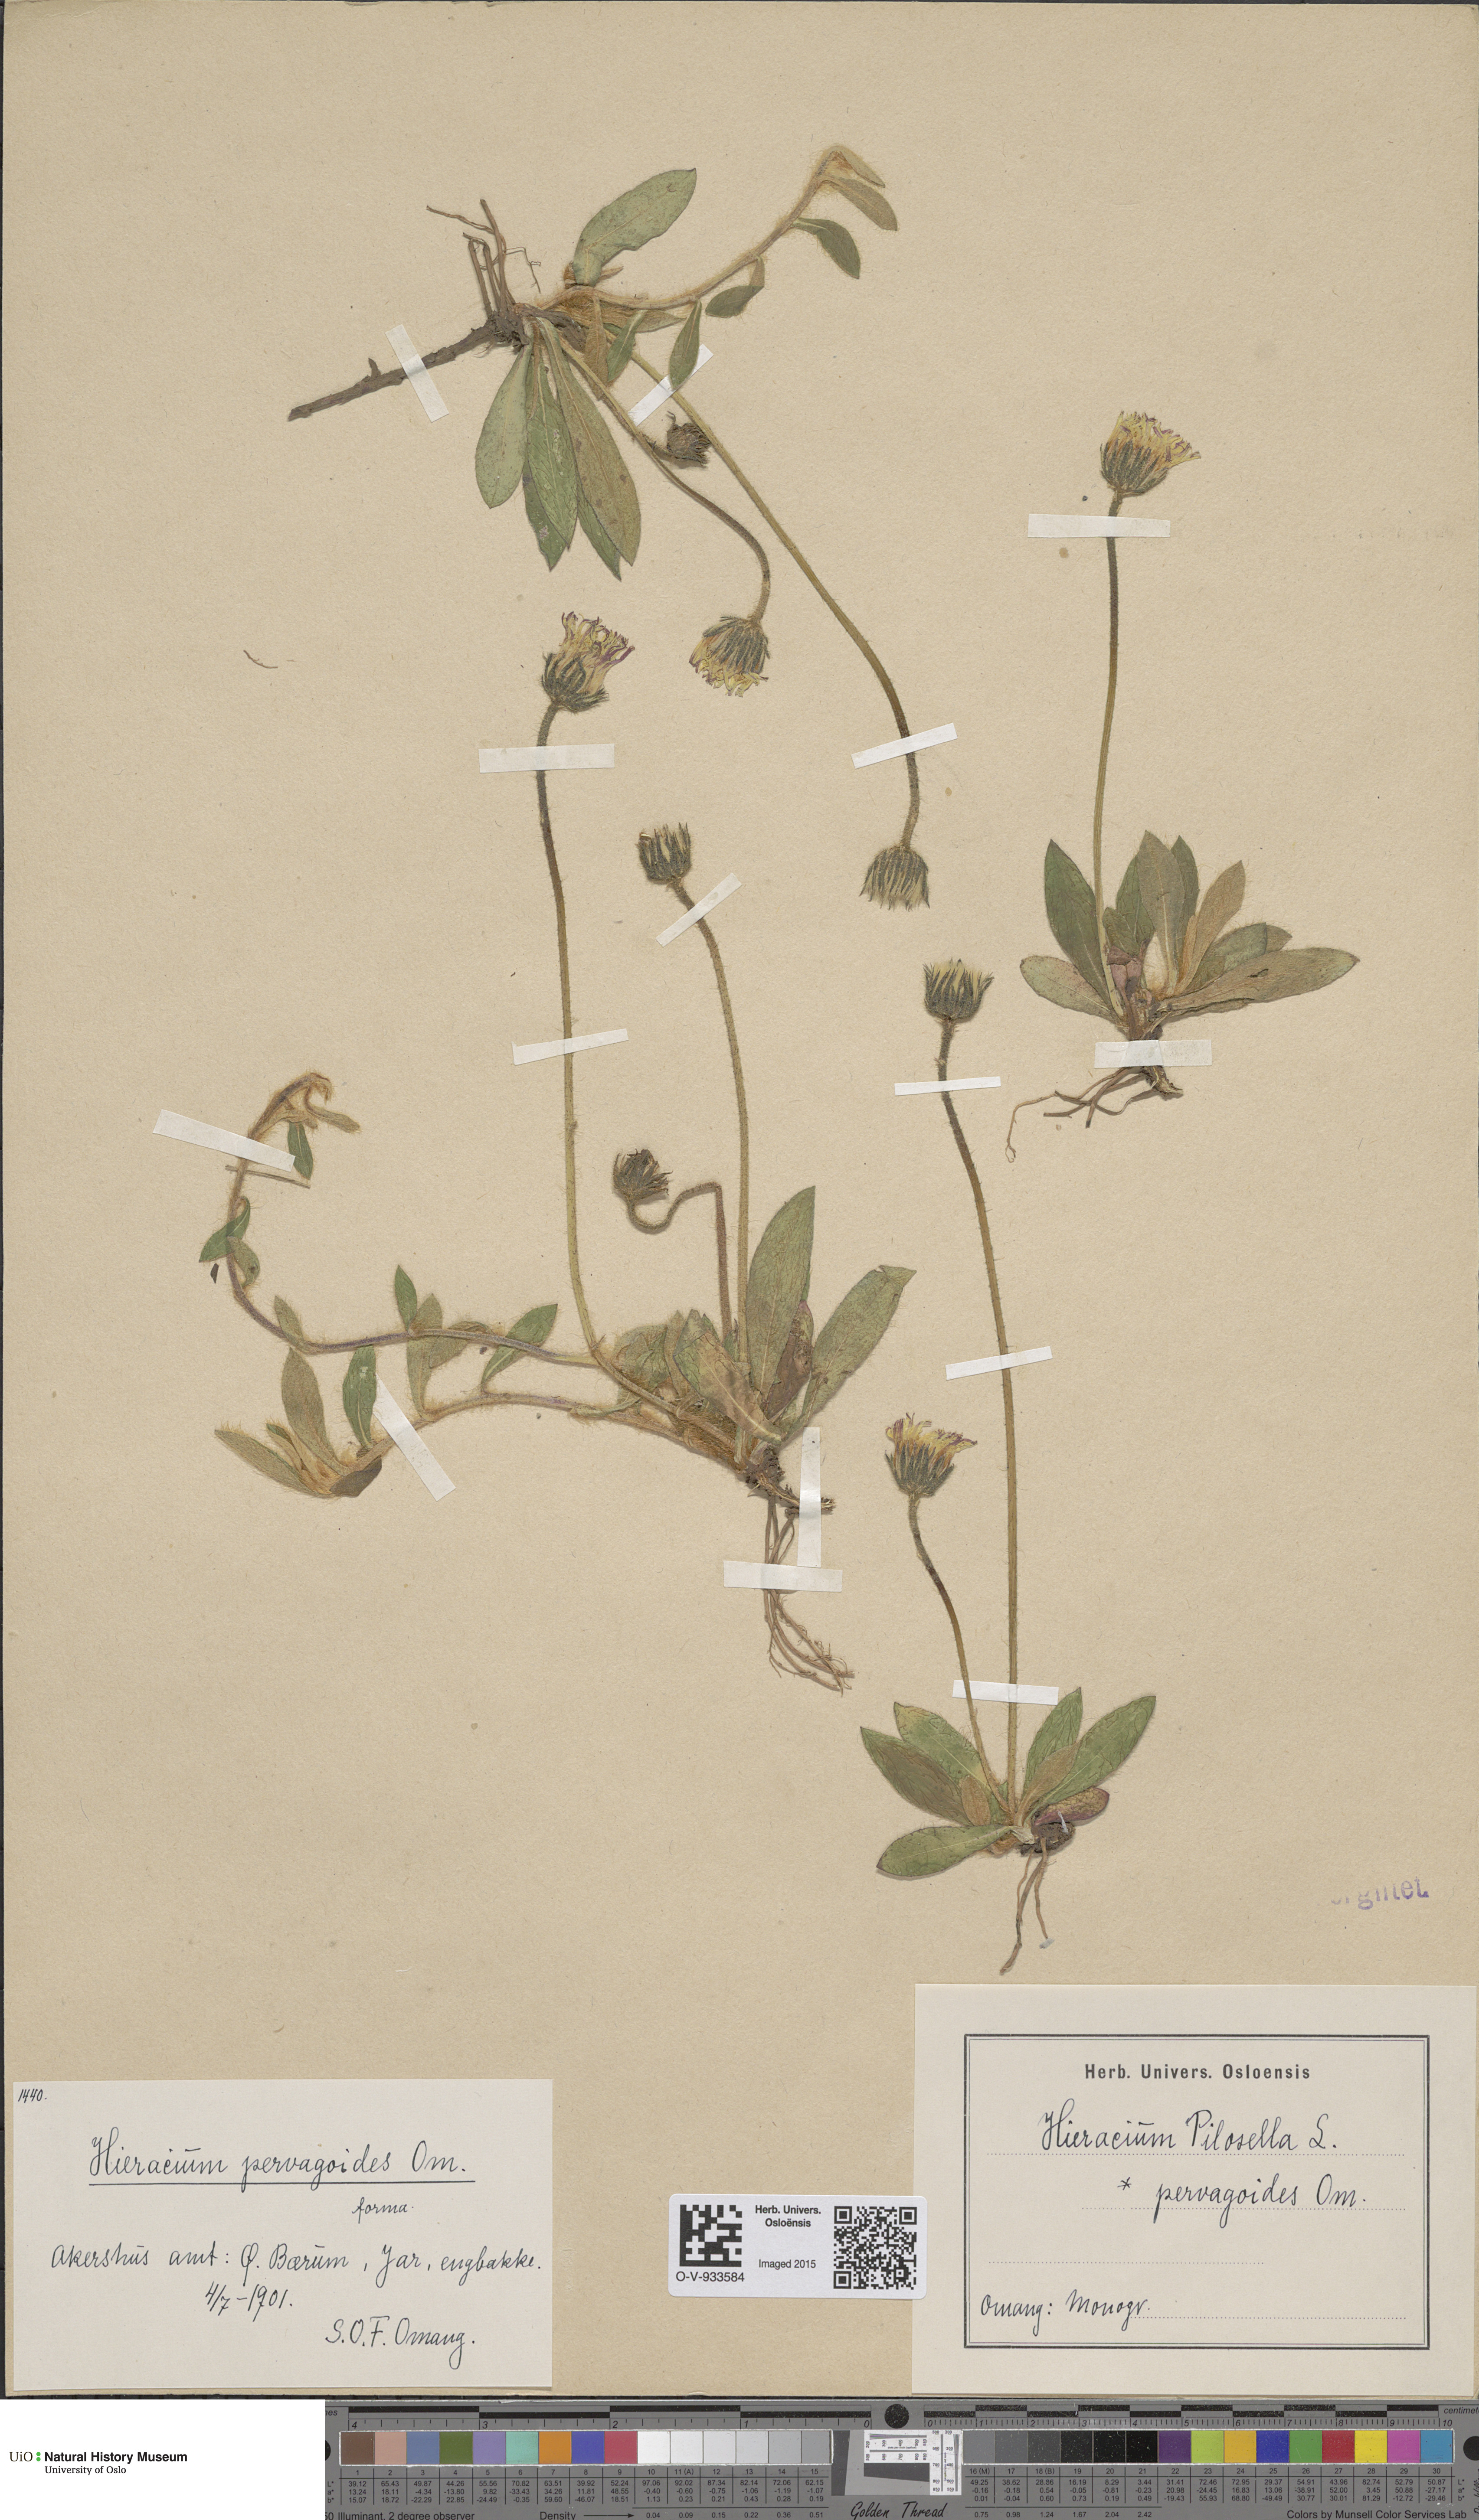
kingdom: Plantae
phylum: Tracheophyta
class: Magnoliopsida
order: Asterales
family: Asteraceae
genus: Pilosella
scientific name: Pilosella officinarum
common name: Mouse-ear hawkweed
